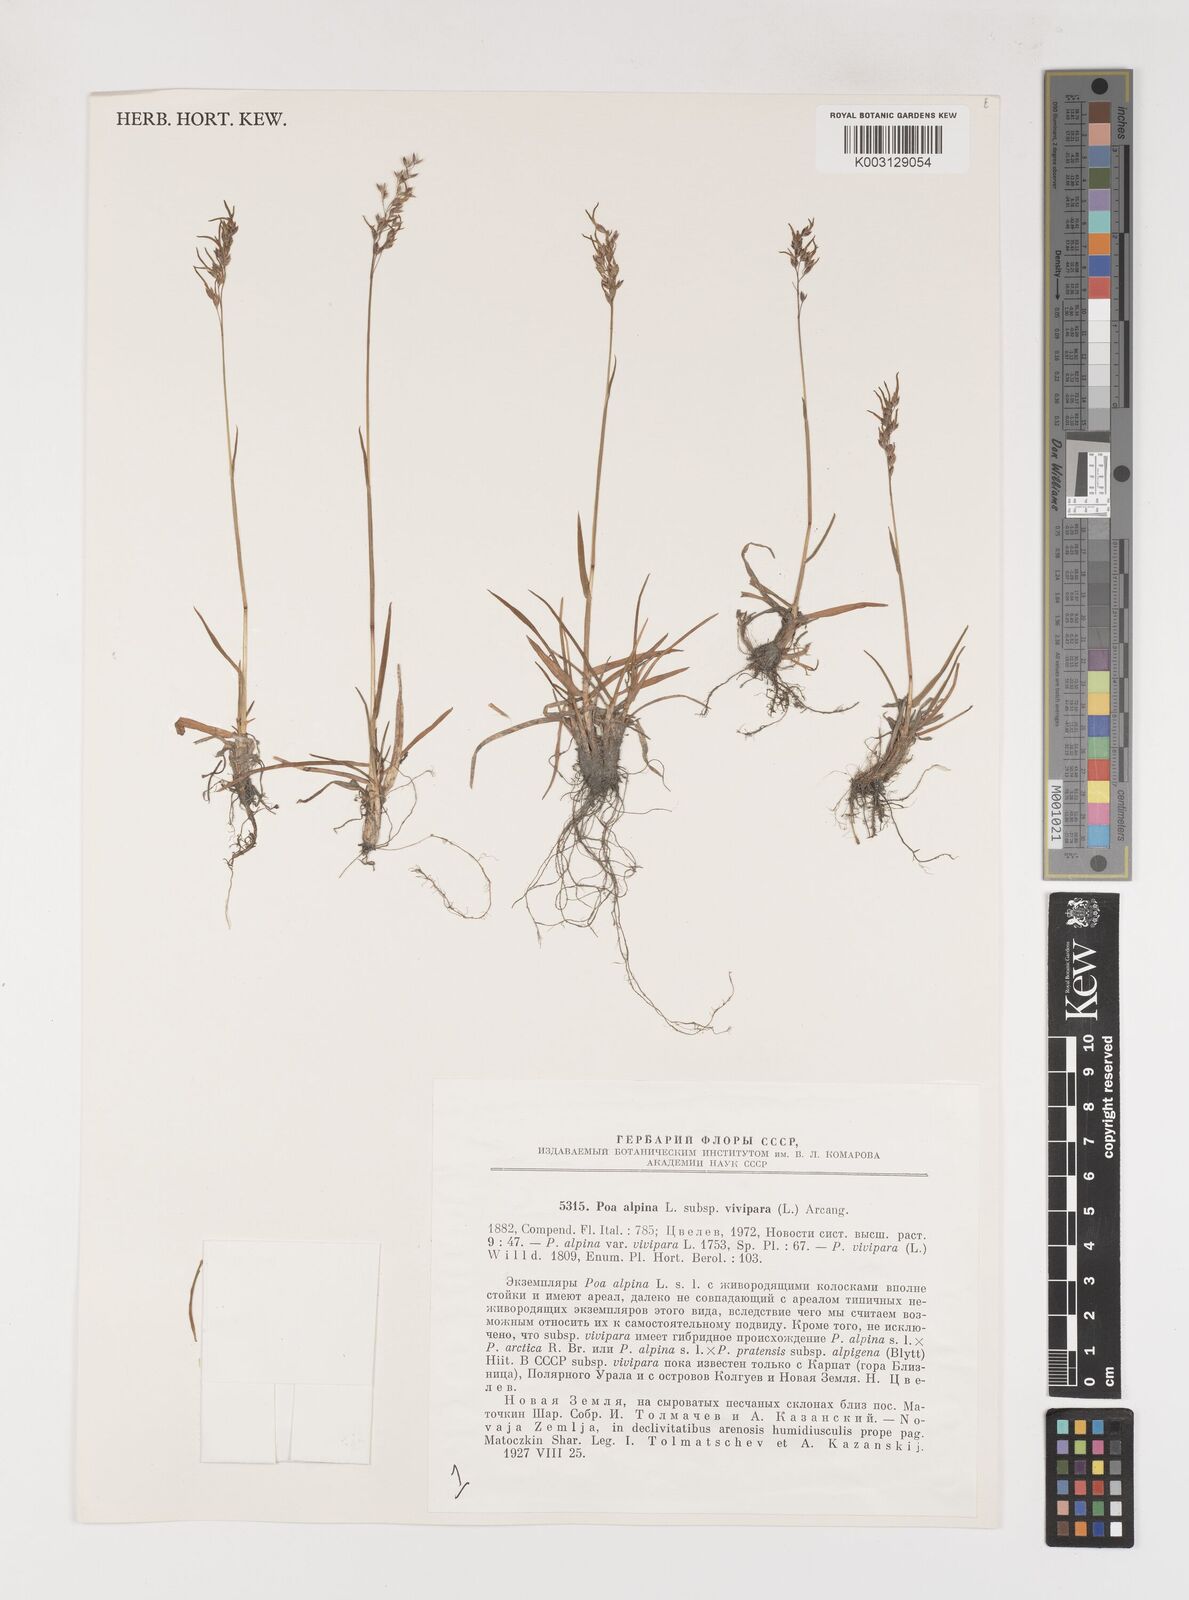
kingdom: Plantae
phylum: Tracheophyta
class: Liliopsida
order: Poales
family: Poaceae
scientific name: Poaceae
